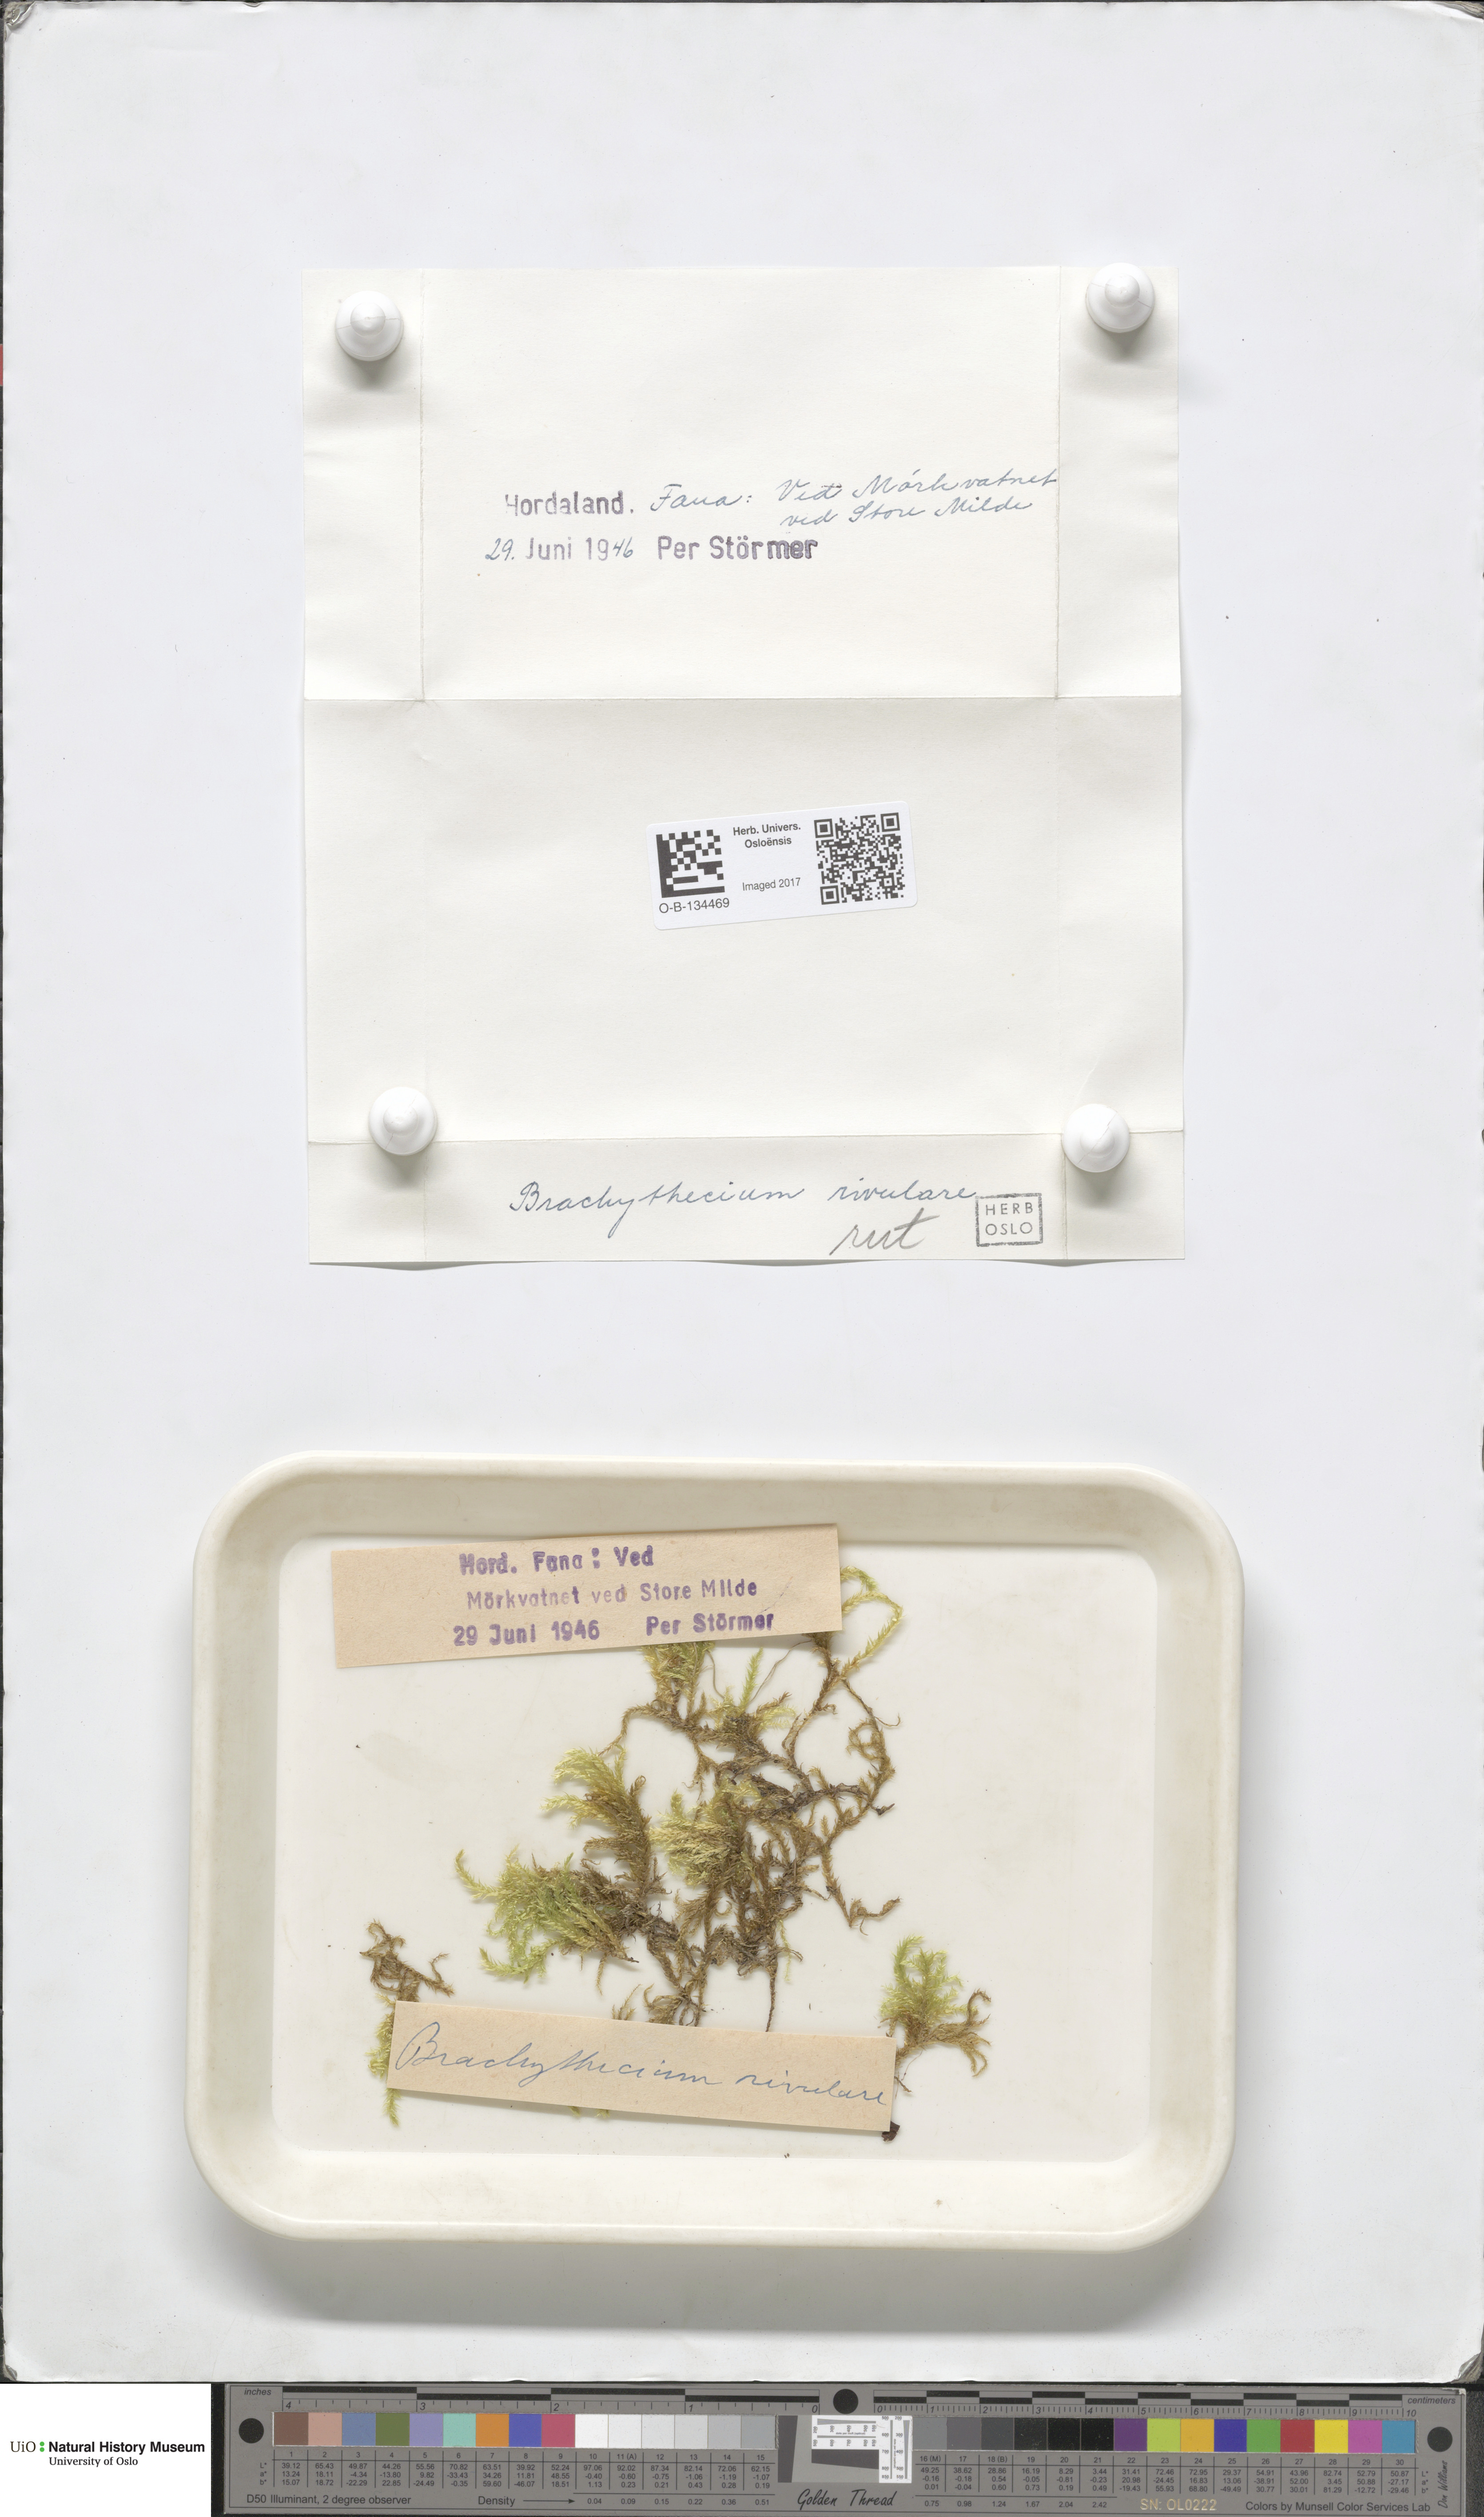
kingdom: Plantae
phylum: Bryophyta
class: Bryopsida
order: Hypnales
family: Brachytheciaceae
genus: Brachythecium
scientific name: Brachythecium rivulare
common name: River ragged moss
